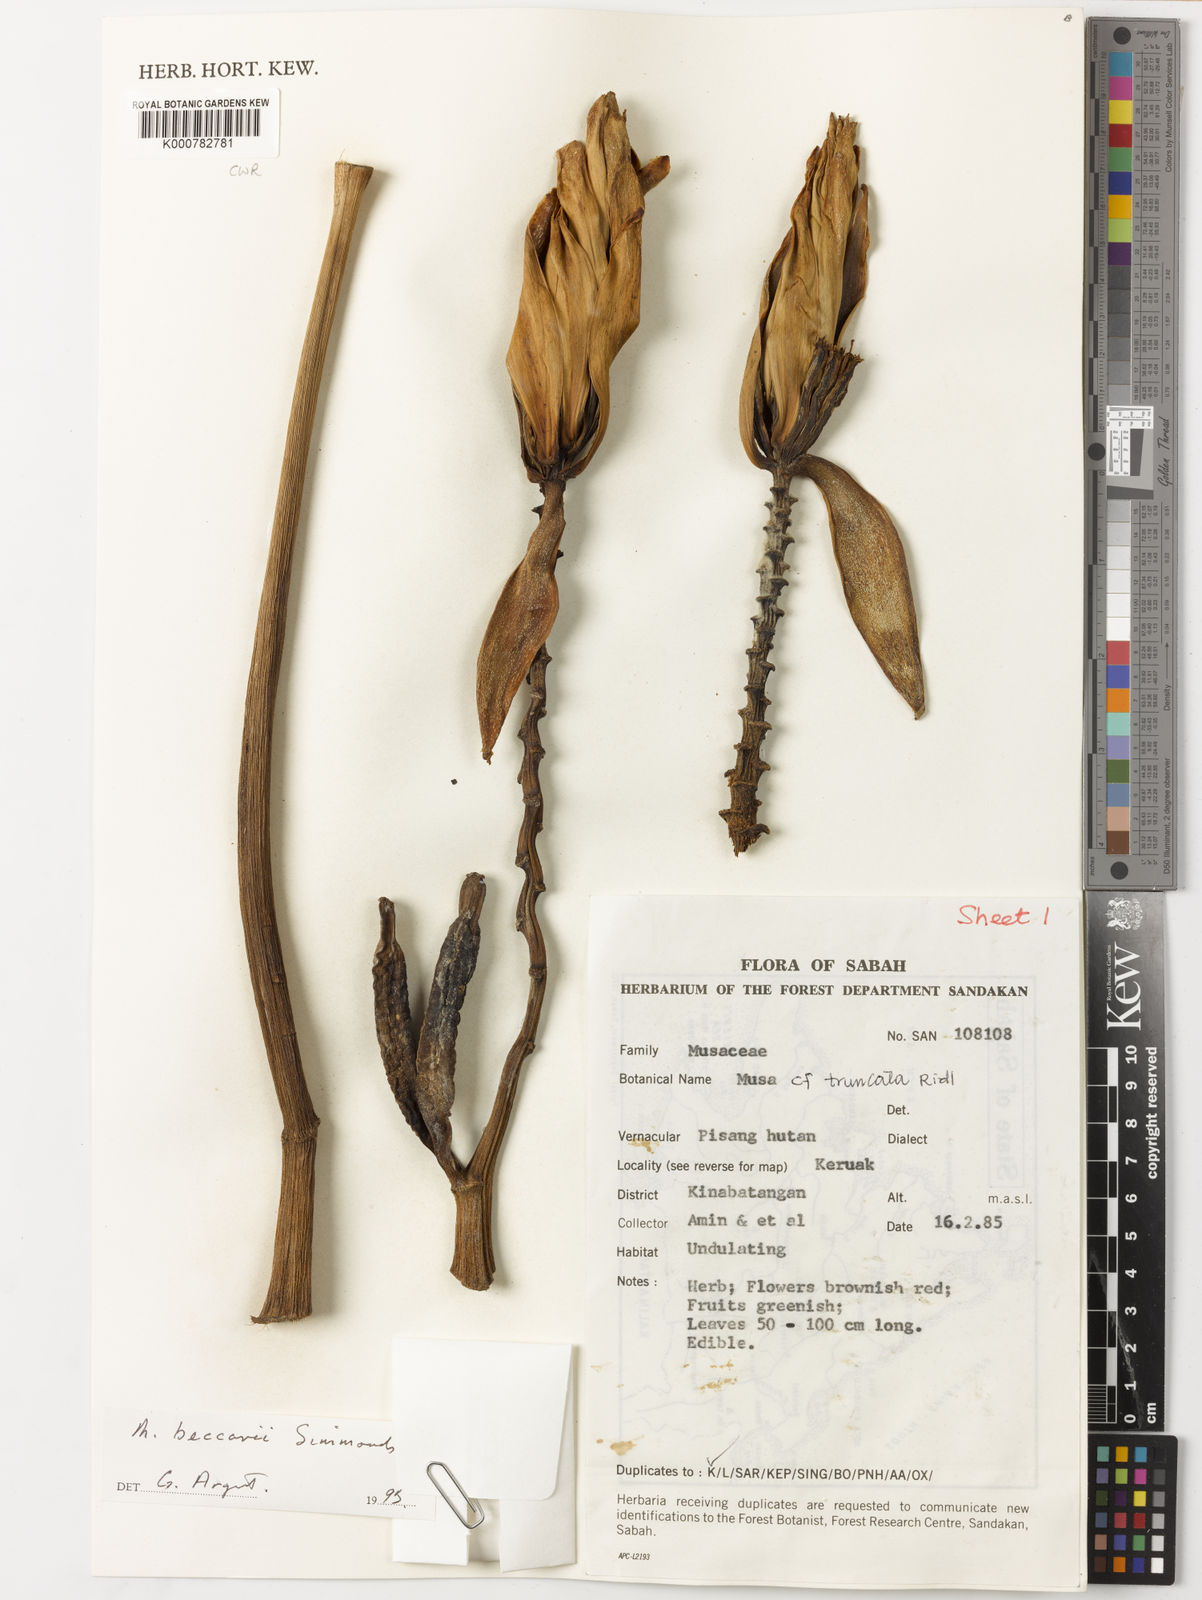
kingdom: Plantae
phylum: Tracheophyta
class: Liliopsida
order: Zingiberales
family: Musaceae
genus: Musa
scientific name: Musa beccarii
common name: Pisang tajak
